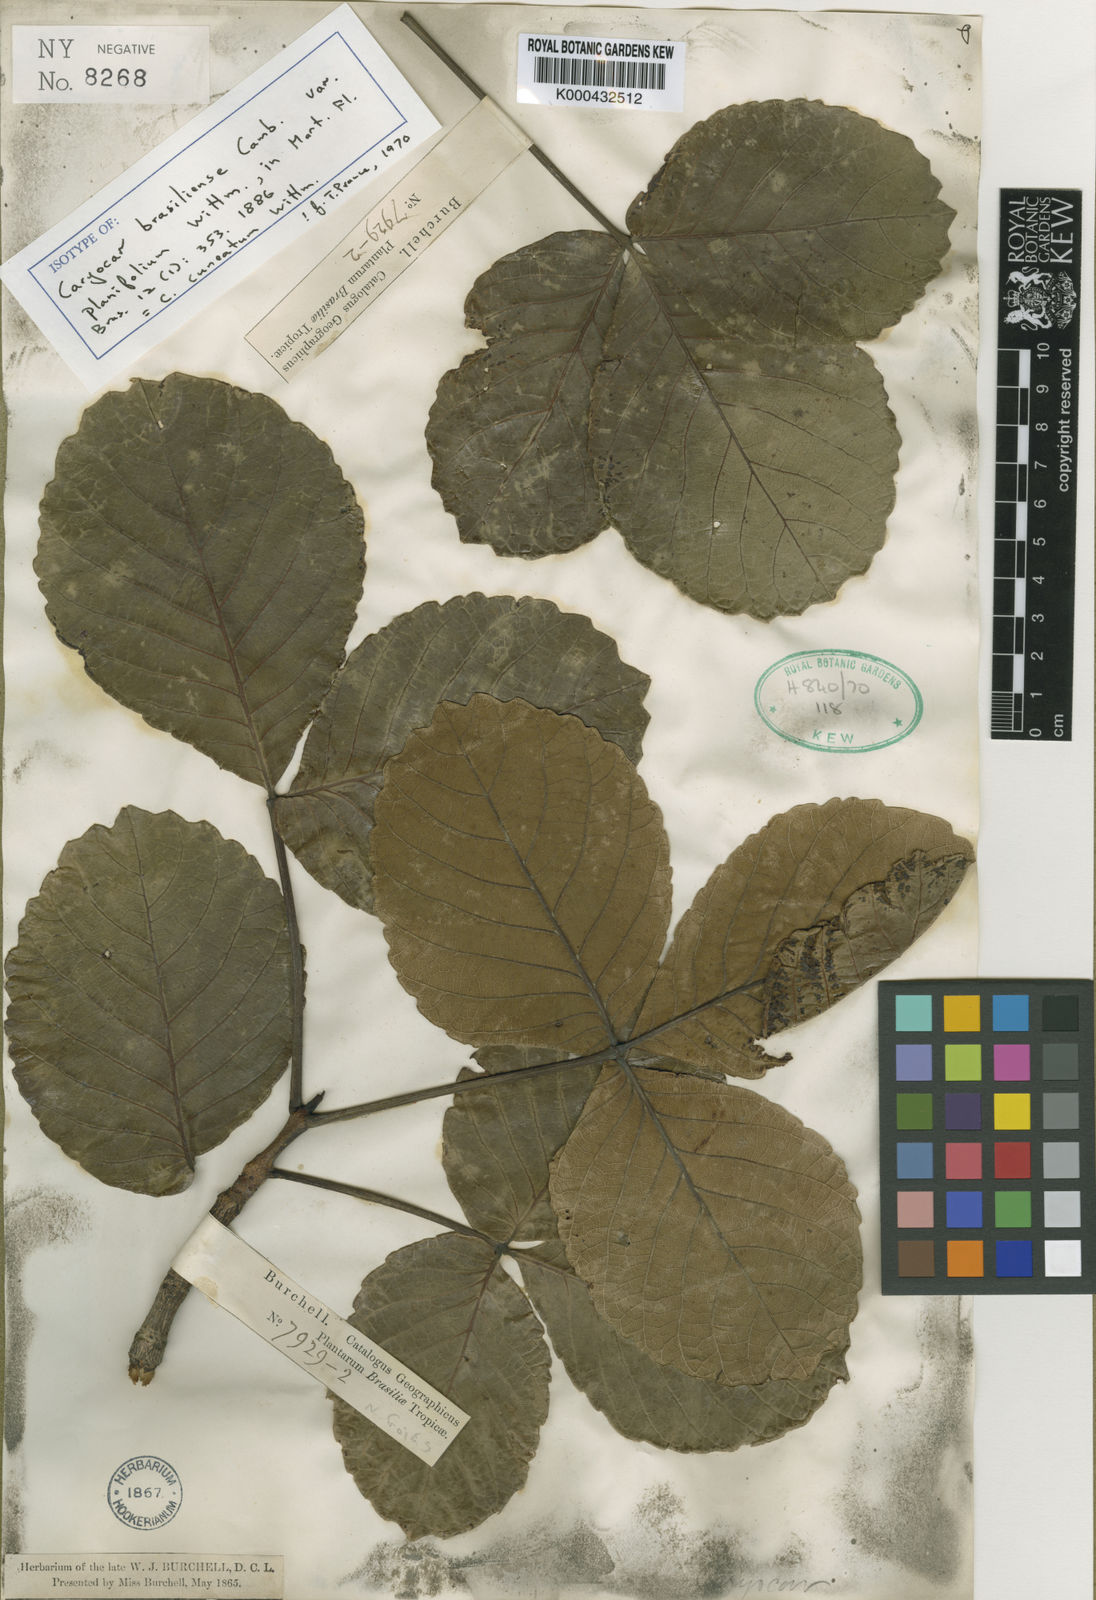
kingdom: Plantae
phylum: Tracheophyta
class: Magnoliopsida
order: Malpighiales
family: Caryocaraceae
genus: Caryocar
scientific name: Caryocar cuneatum
